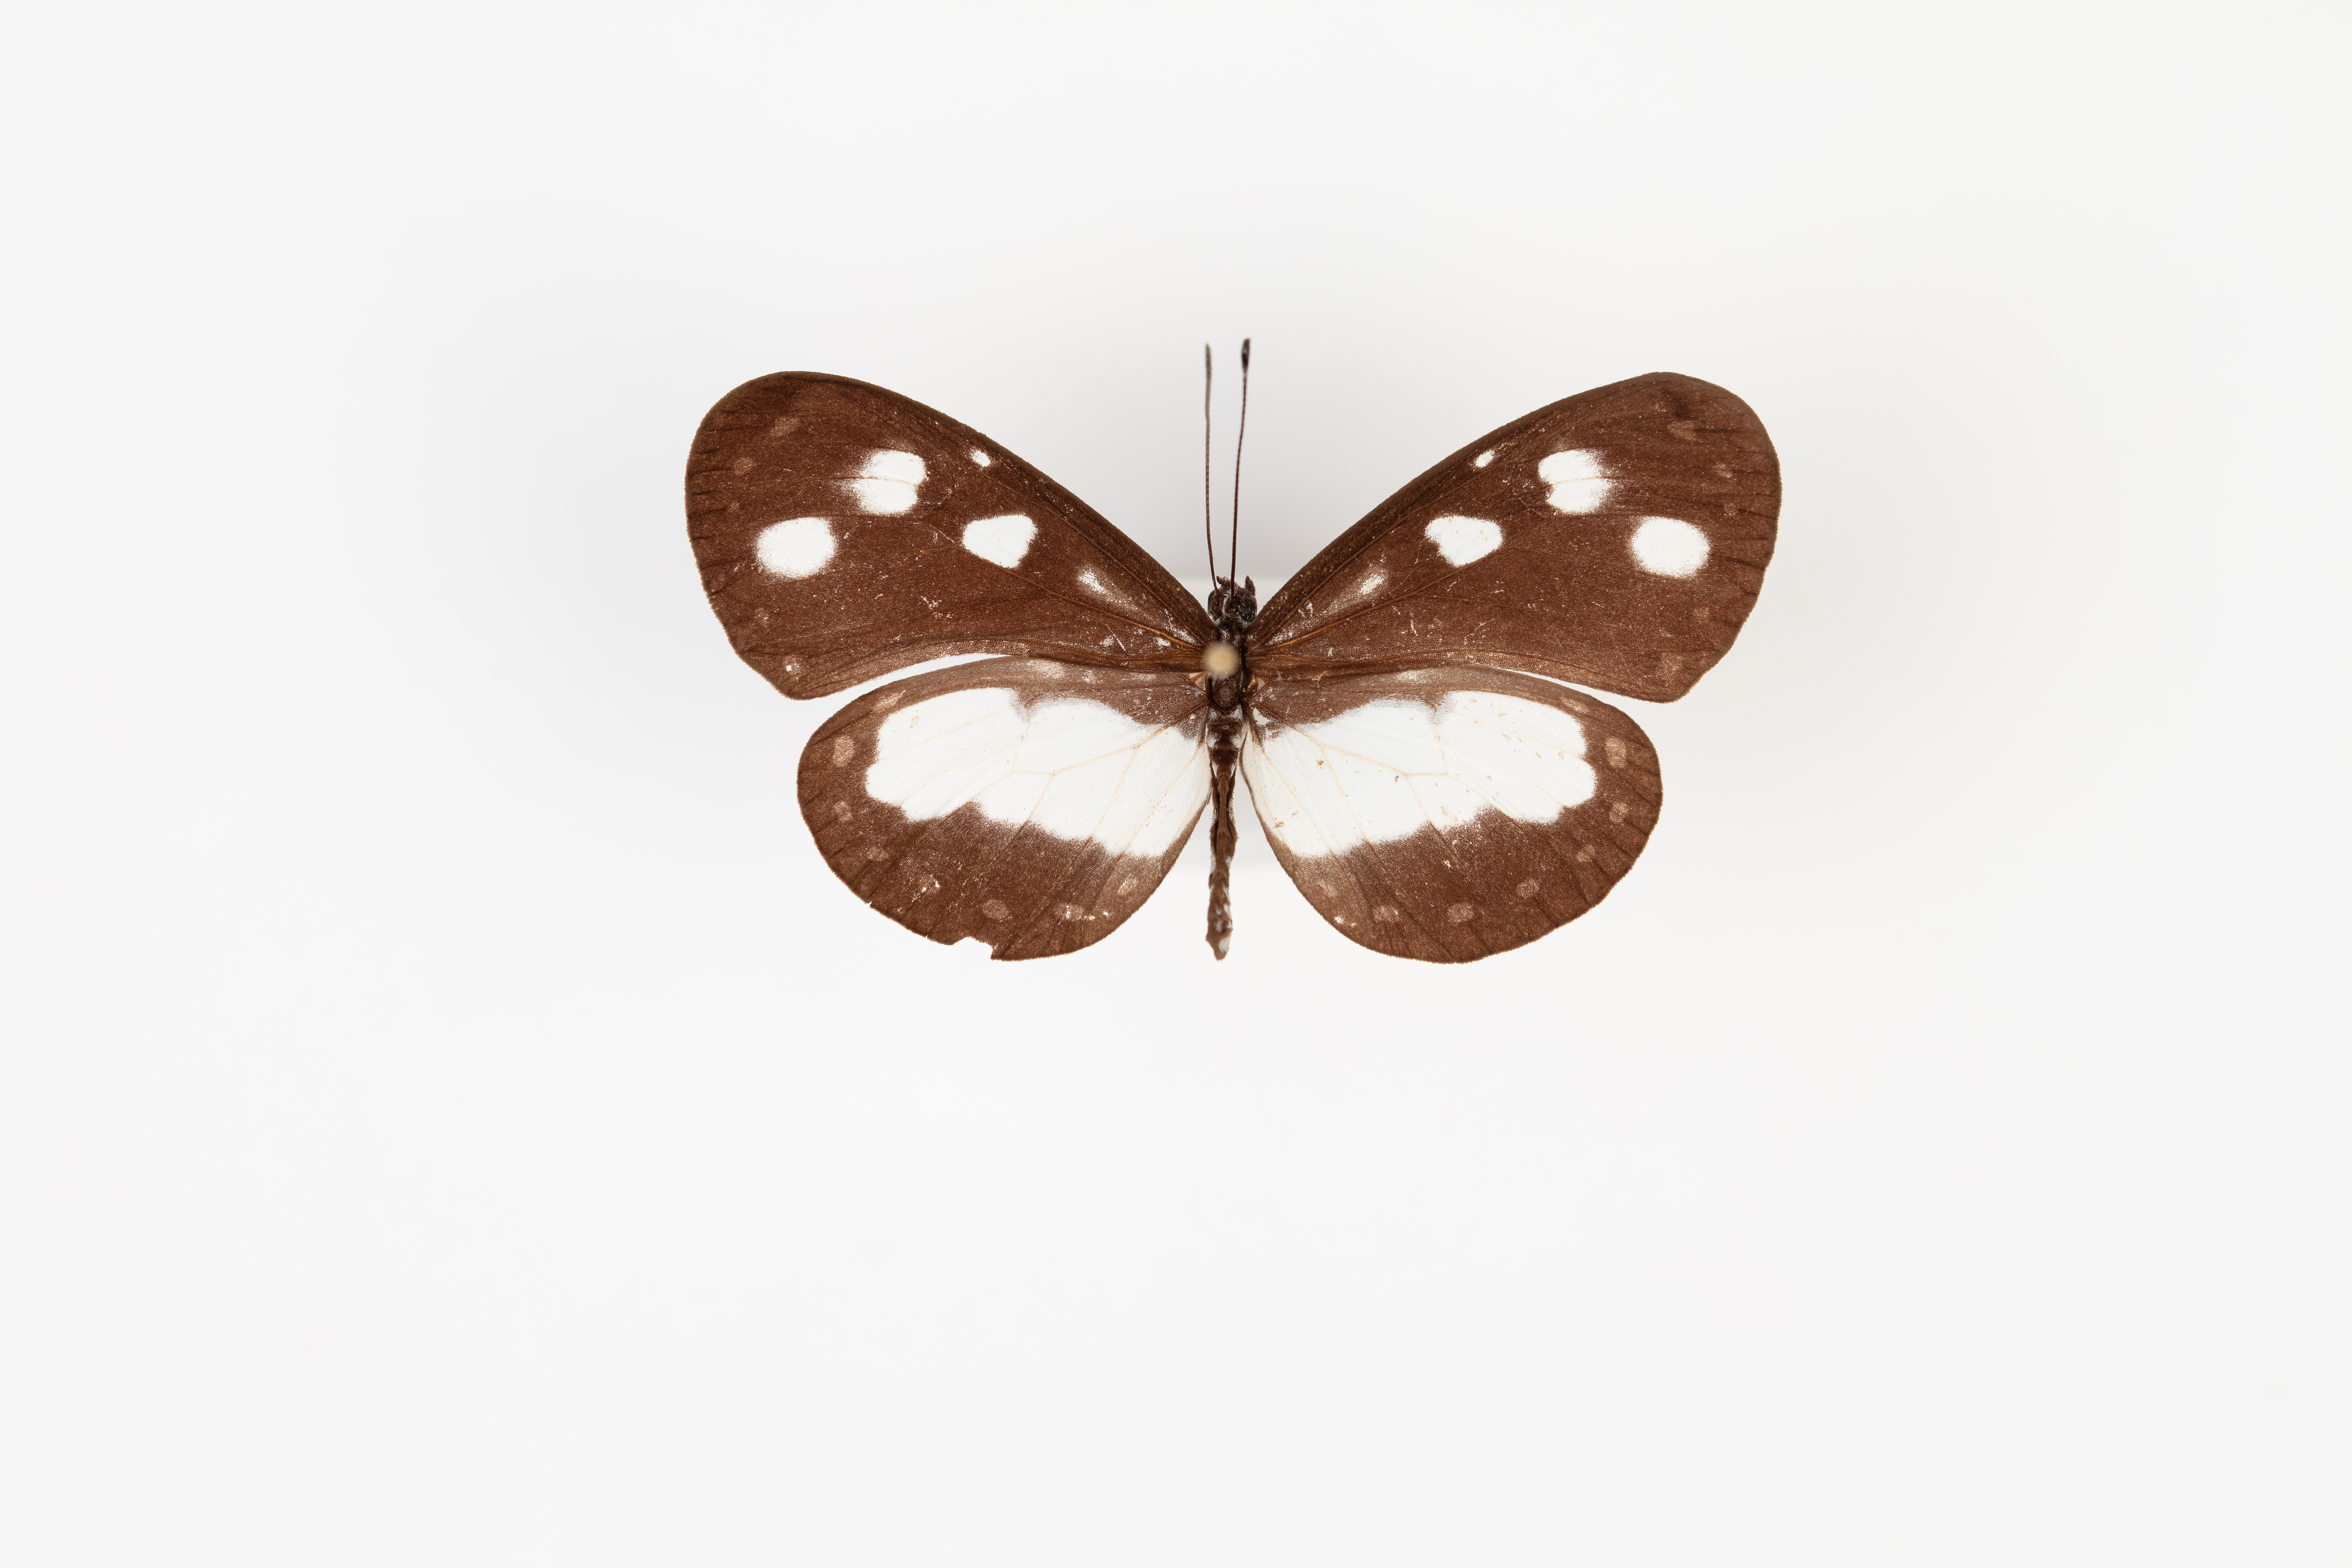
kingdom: Animalia
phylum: Arthropoda
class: Insecta
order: Lepidoptera
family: Nymphalidae
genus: Tellervo
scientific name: Tellervo zoilus
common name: Hamadryad
